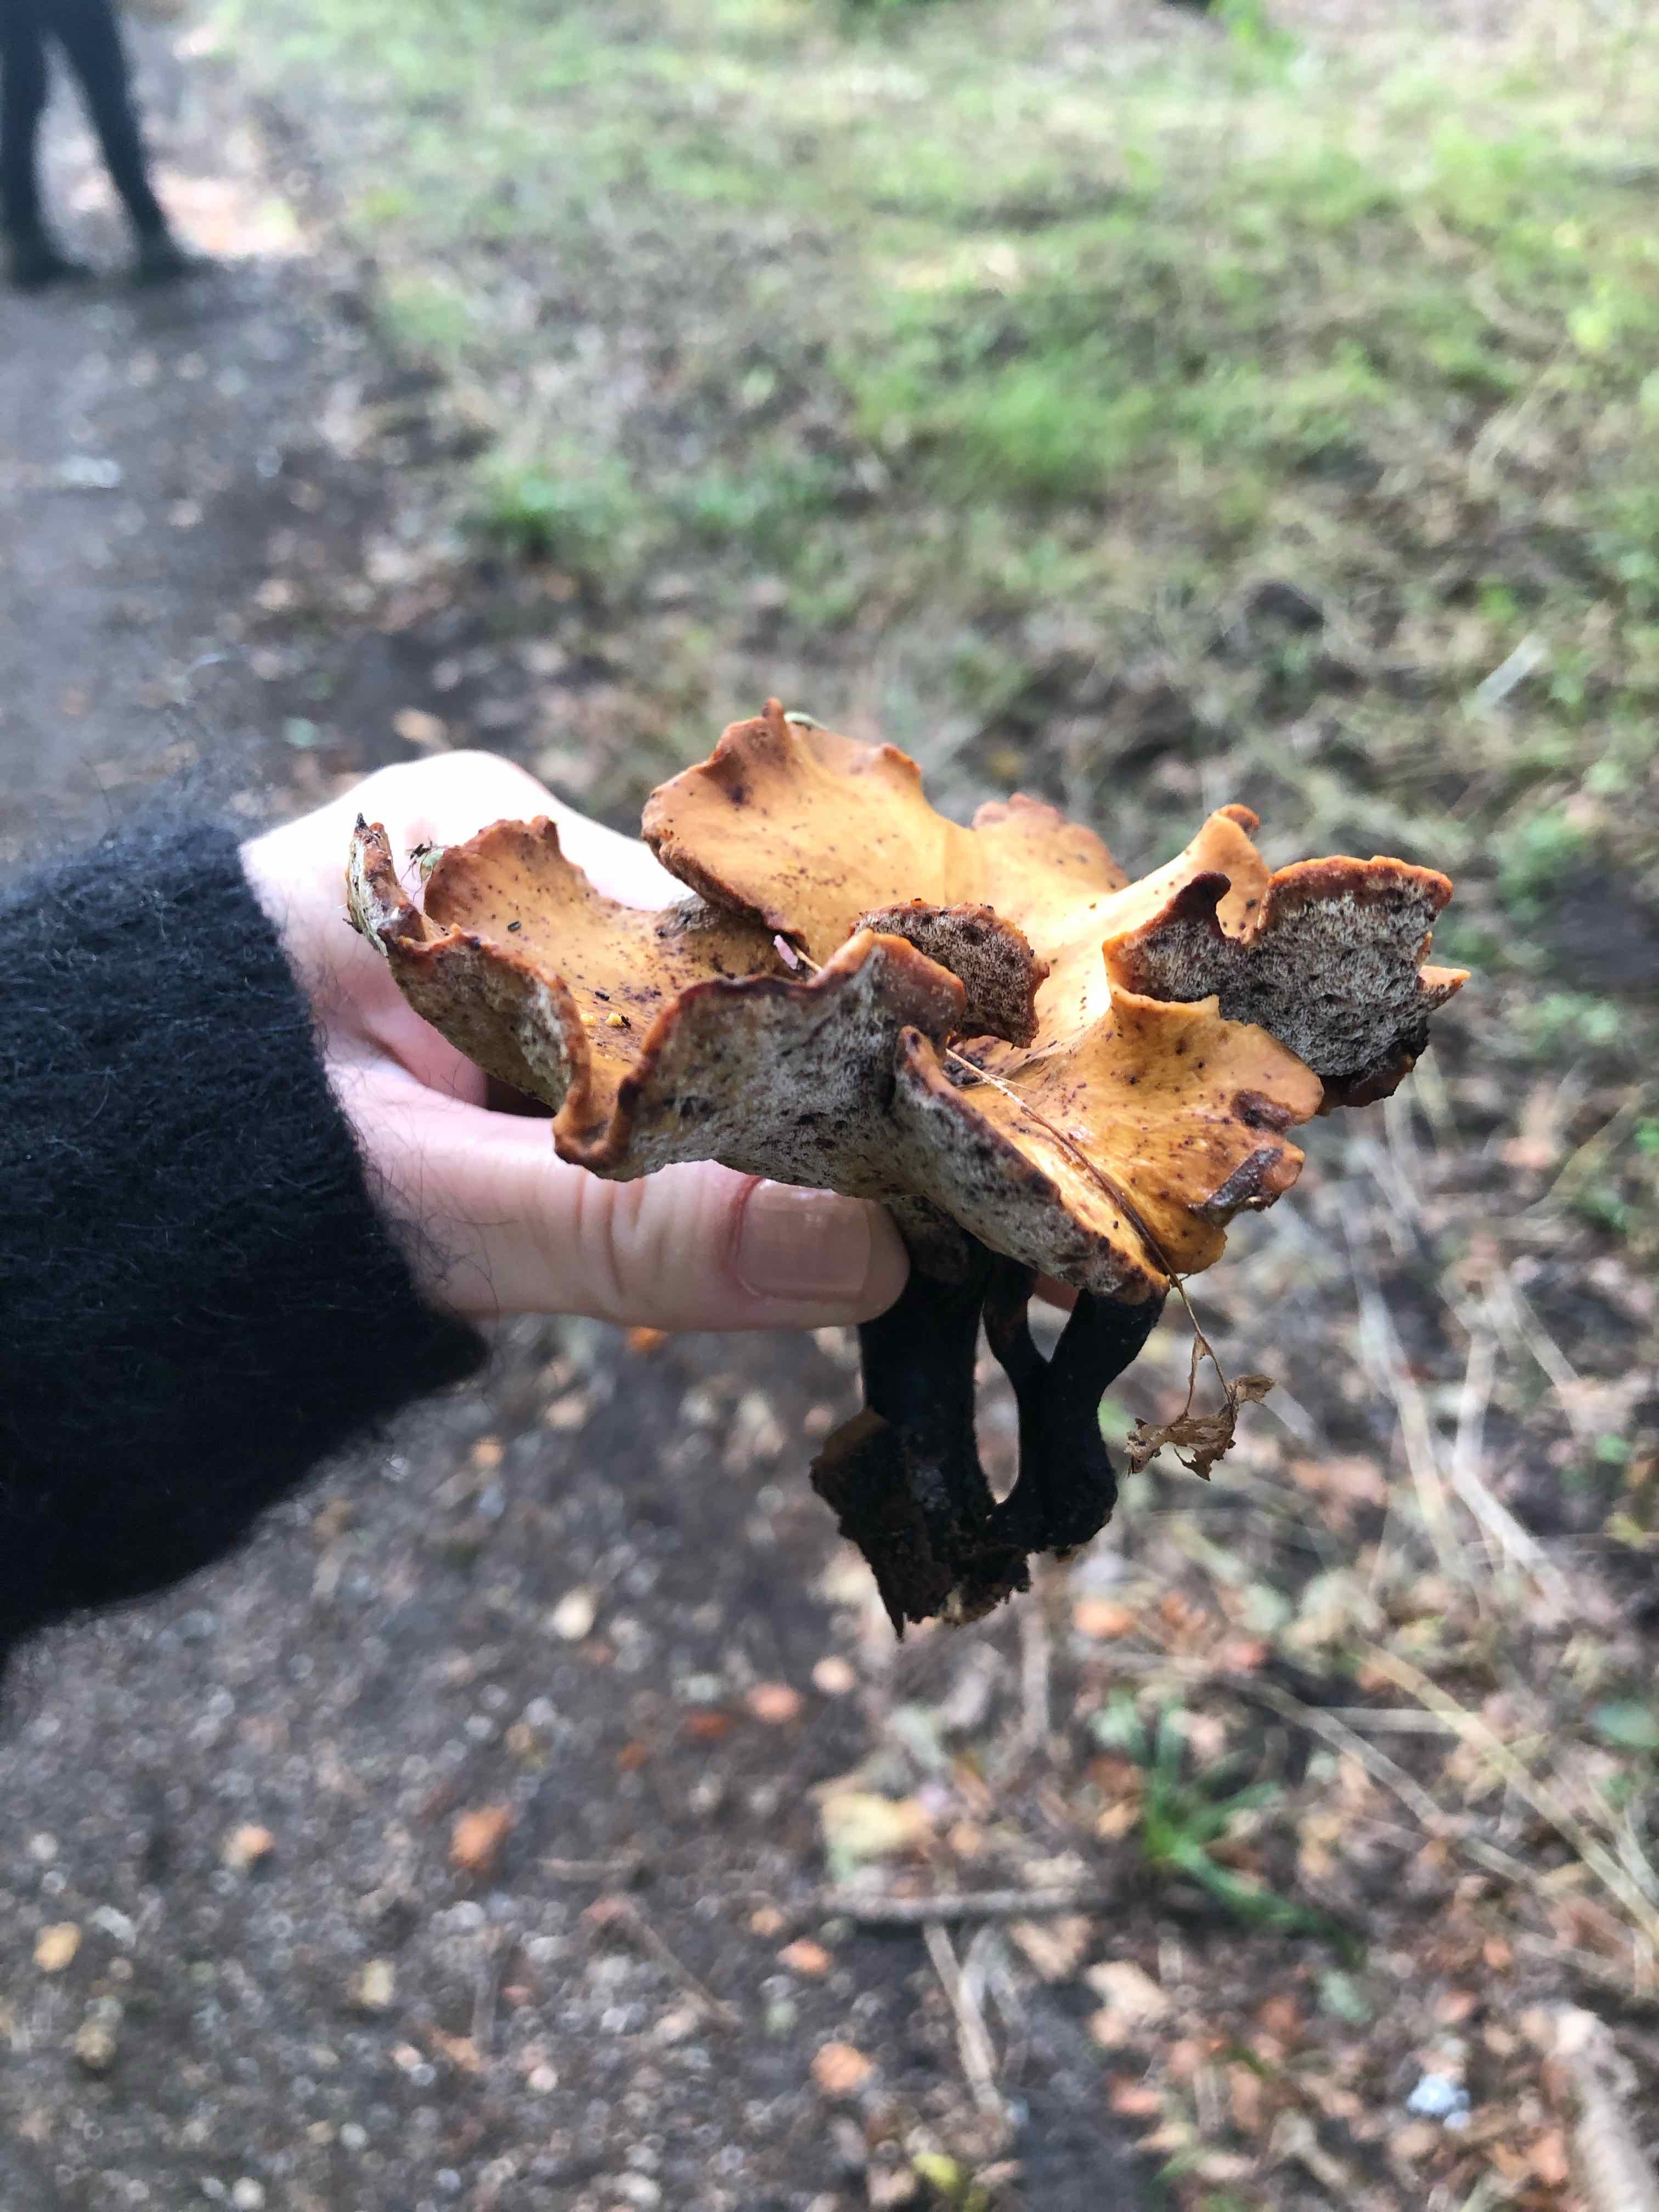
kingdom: Fungi
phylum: Basidiomycota
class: Agaricomycetes
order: Polyporales
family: Polyporaceae
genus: Cerioporus
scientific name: Cerioporus varius
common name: foranderlig stilkporesvamp
